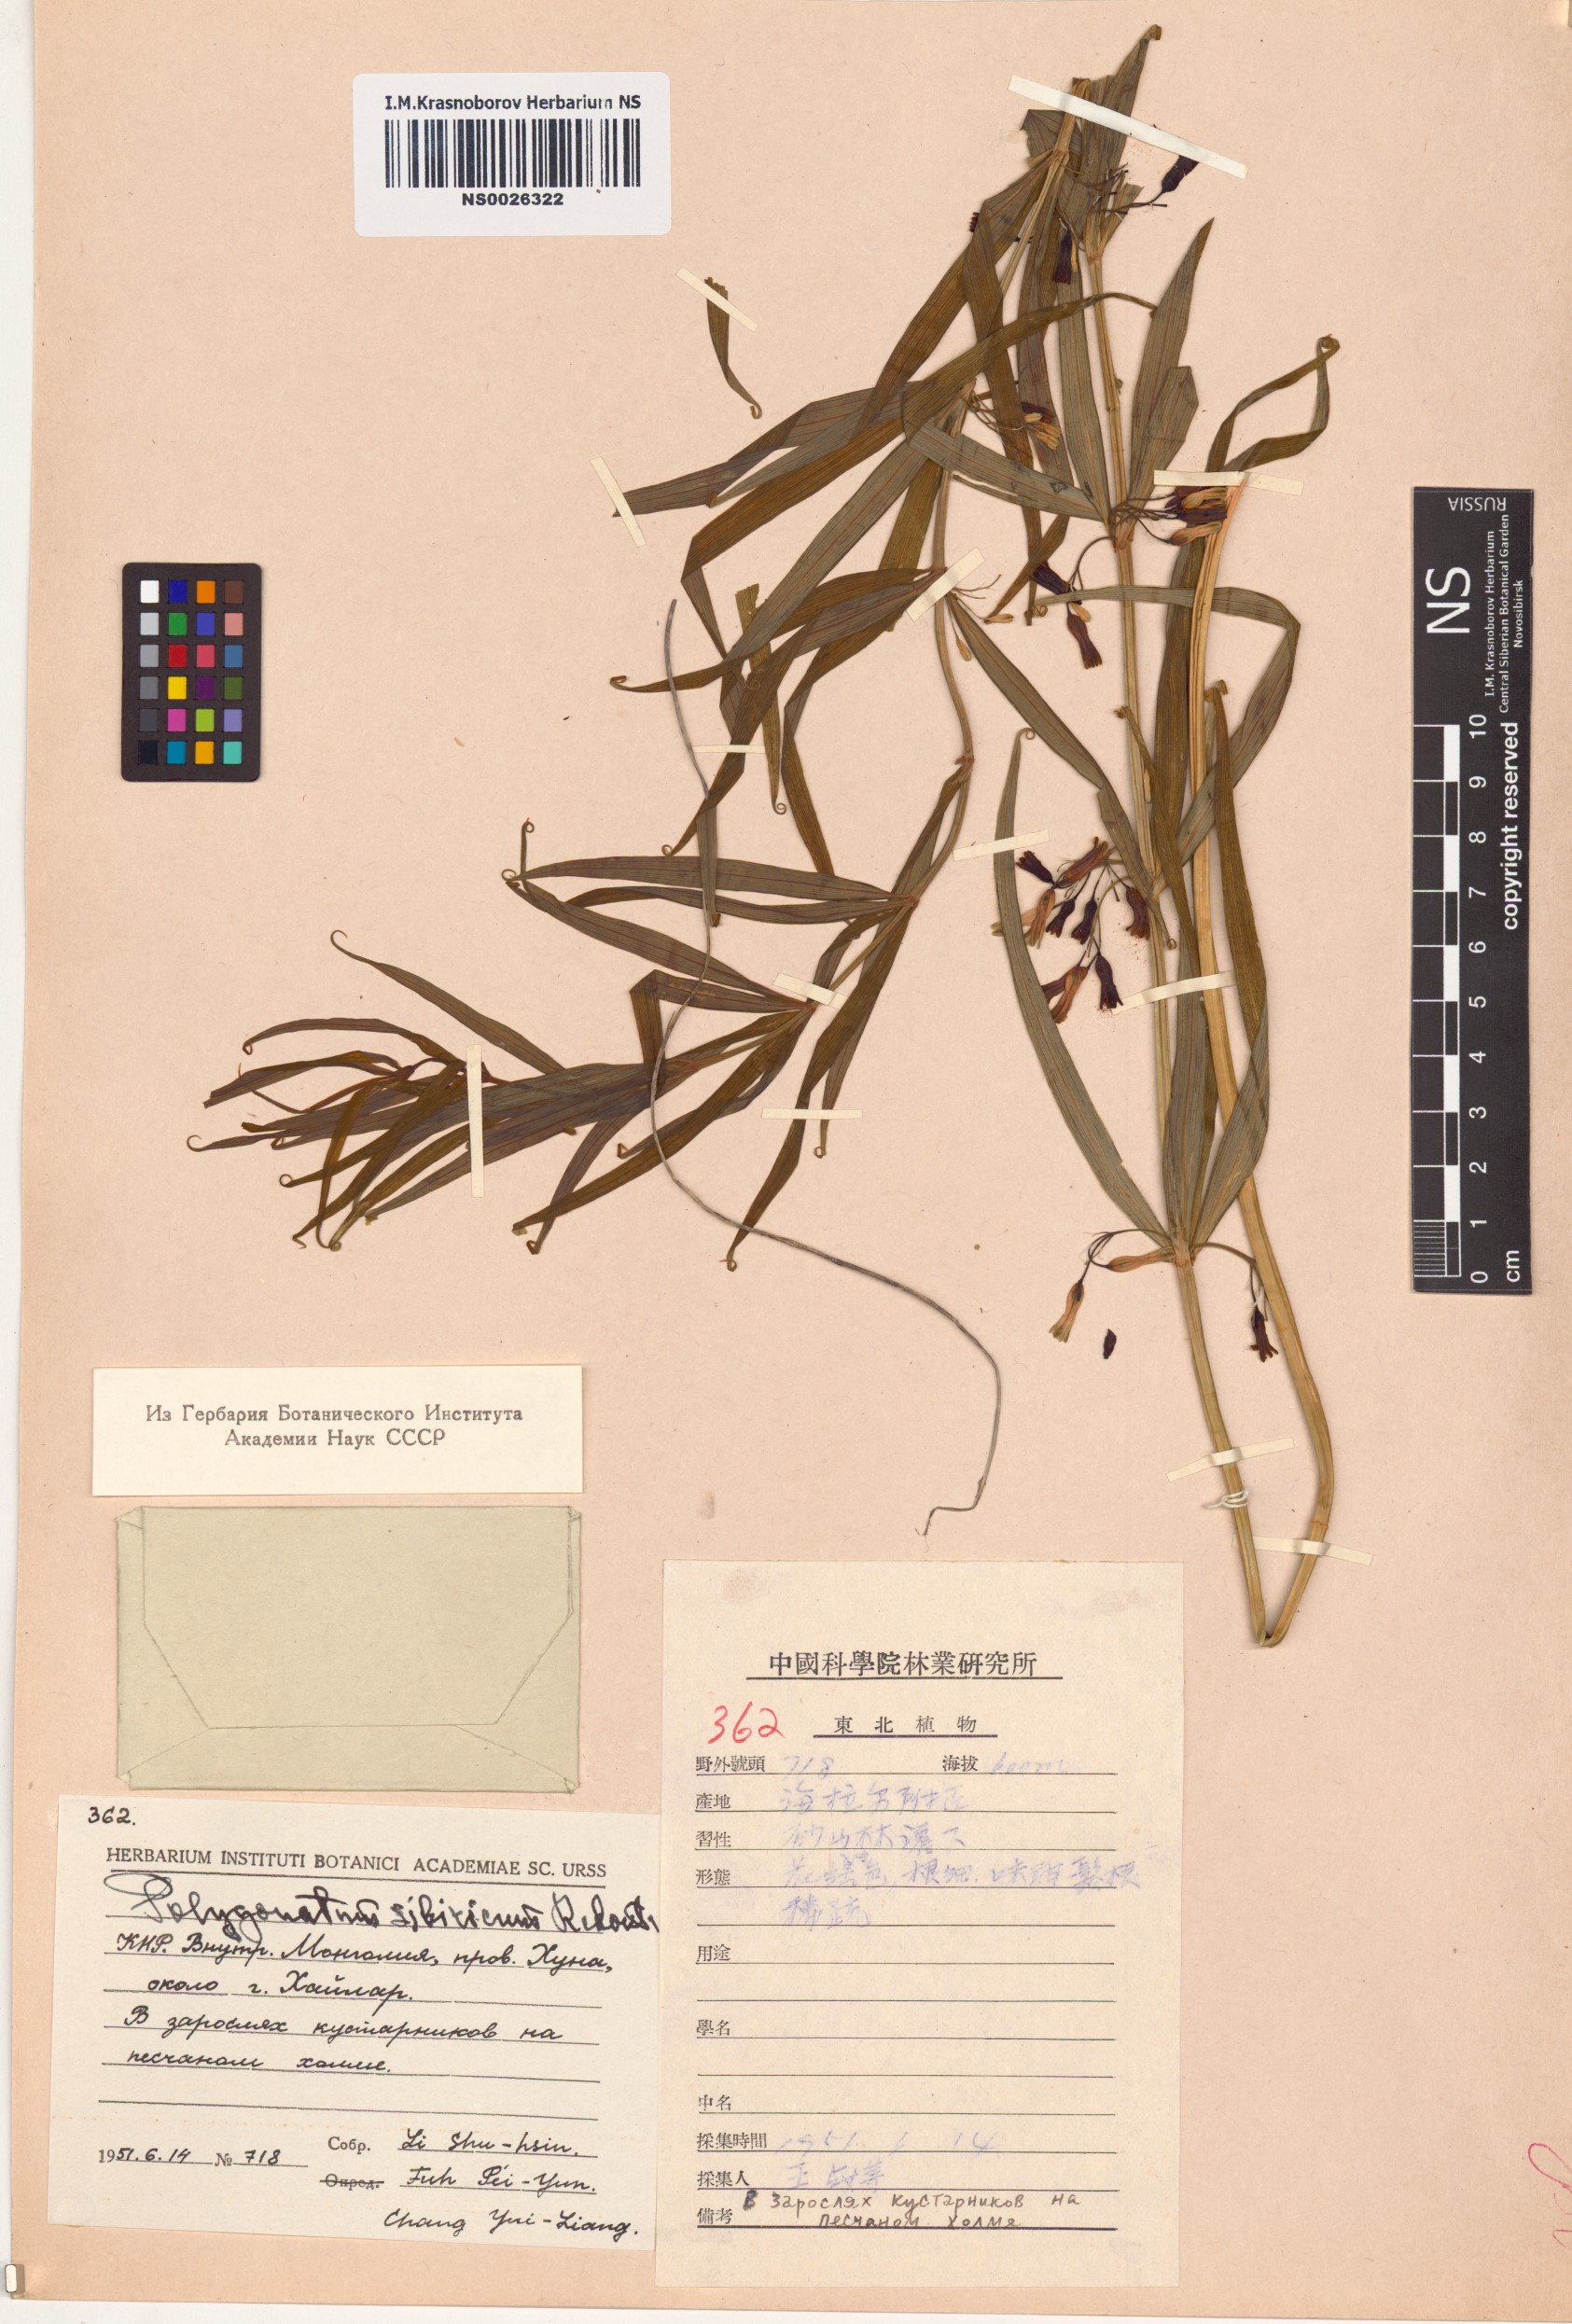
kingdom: Plantae
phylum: Tracheophyta
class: Liliopsida
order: Asparagales
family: Asparagaceae
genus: Polygonatum
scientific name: Polygonatum sibiricum
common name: Siberian solomon's-seal
